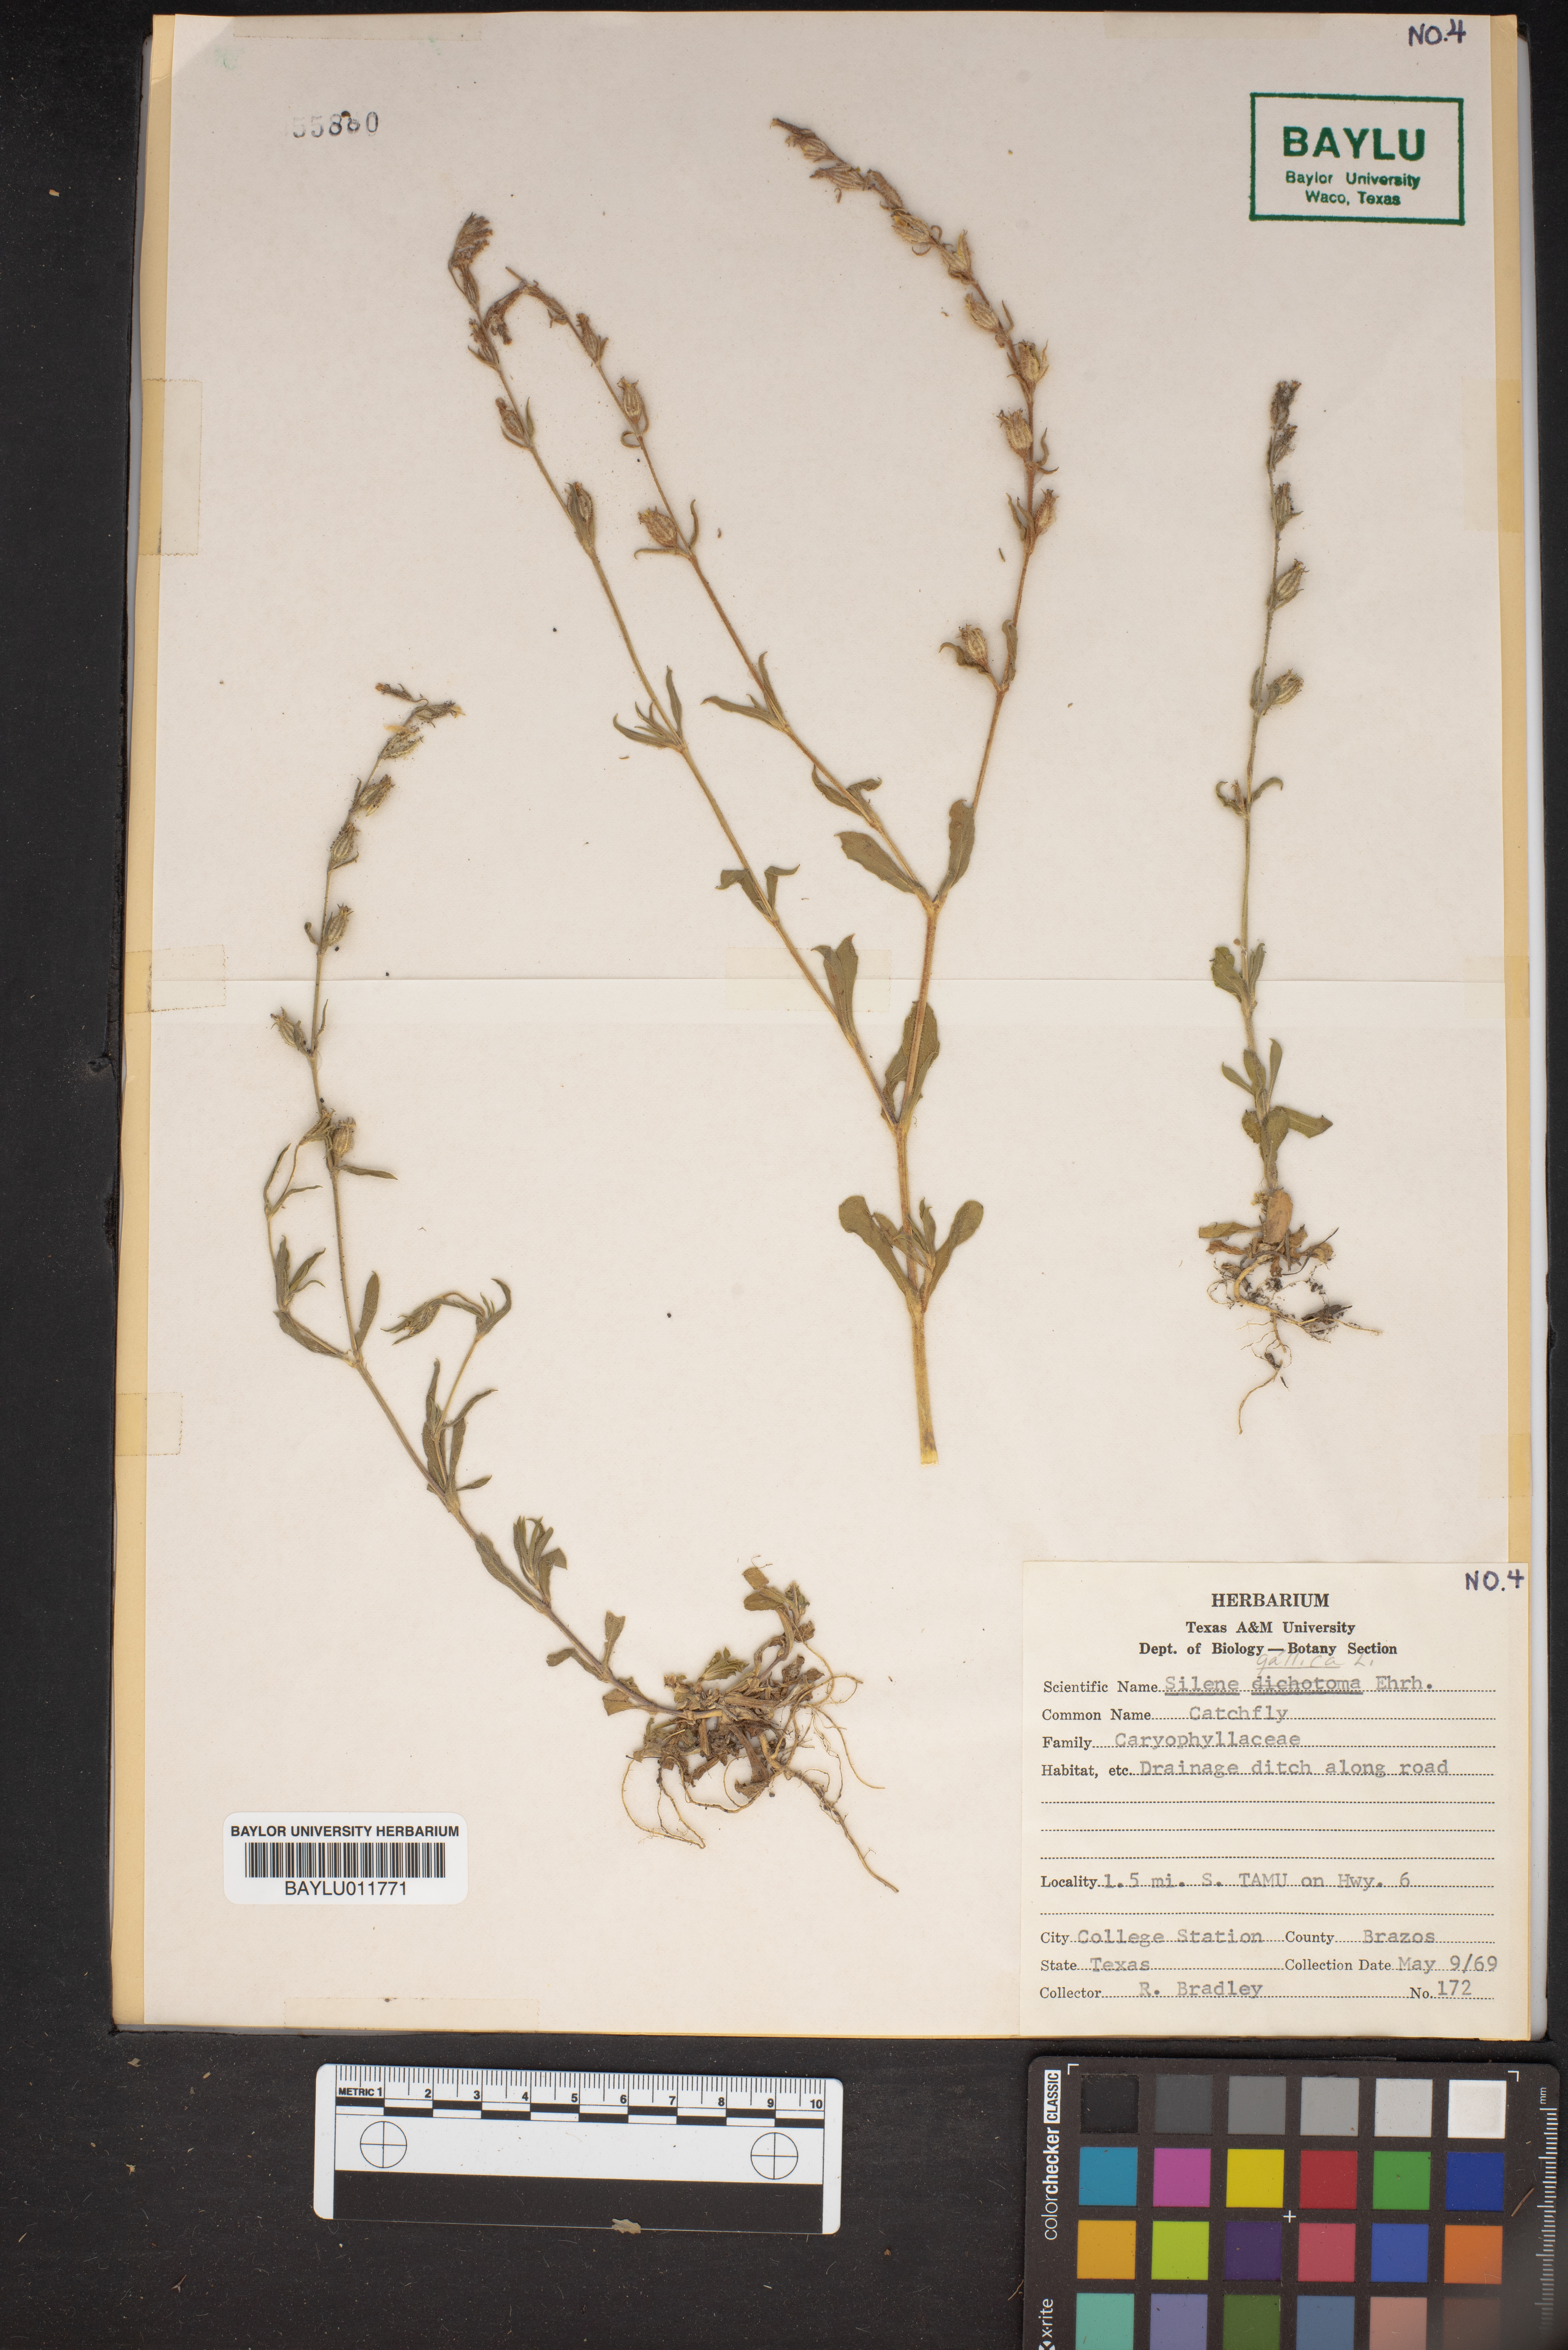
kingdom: Plantae
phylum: Tracheophyta
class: Magnoliopsida
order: Caryophyllales
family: Caryophyllaceae
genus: Silene
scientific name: Silene dichotoma
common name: Forked catchfly
